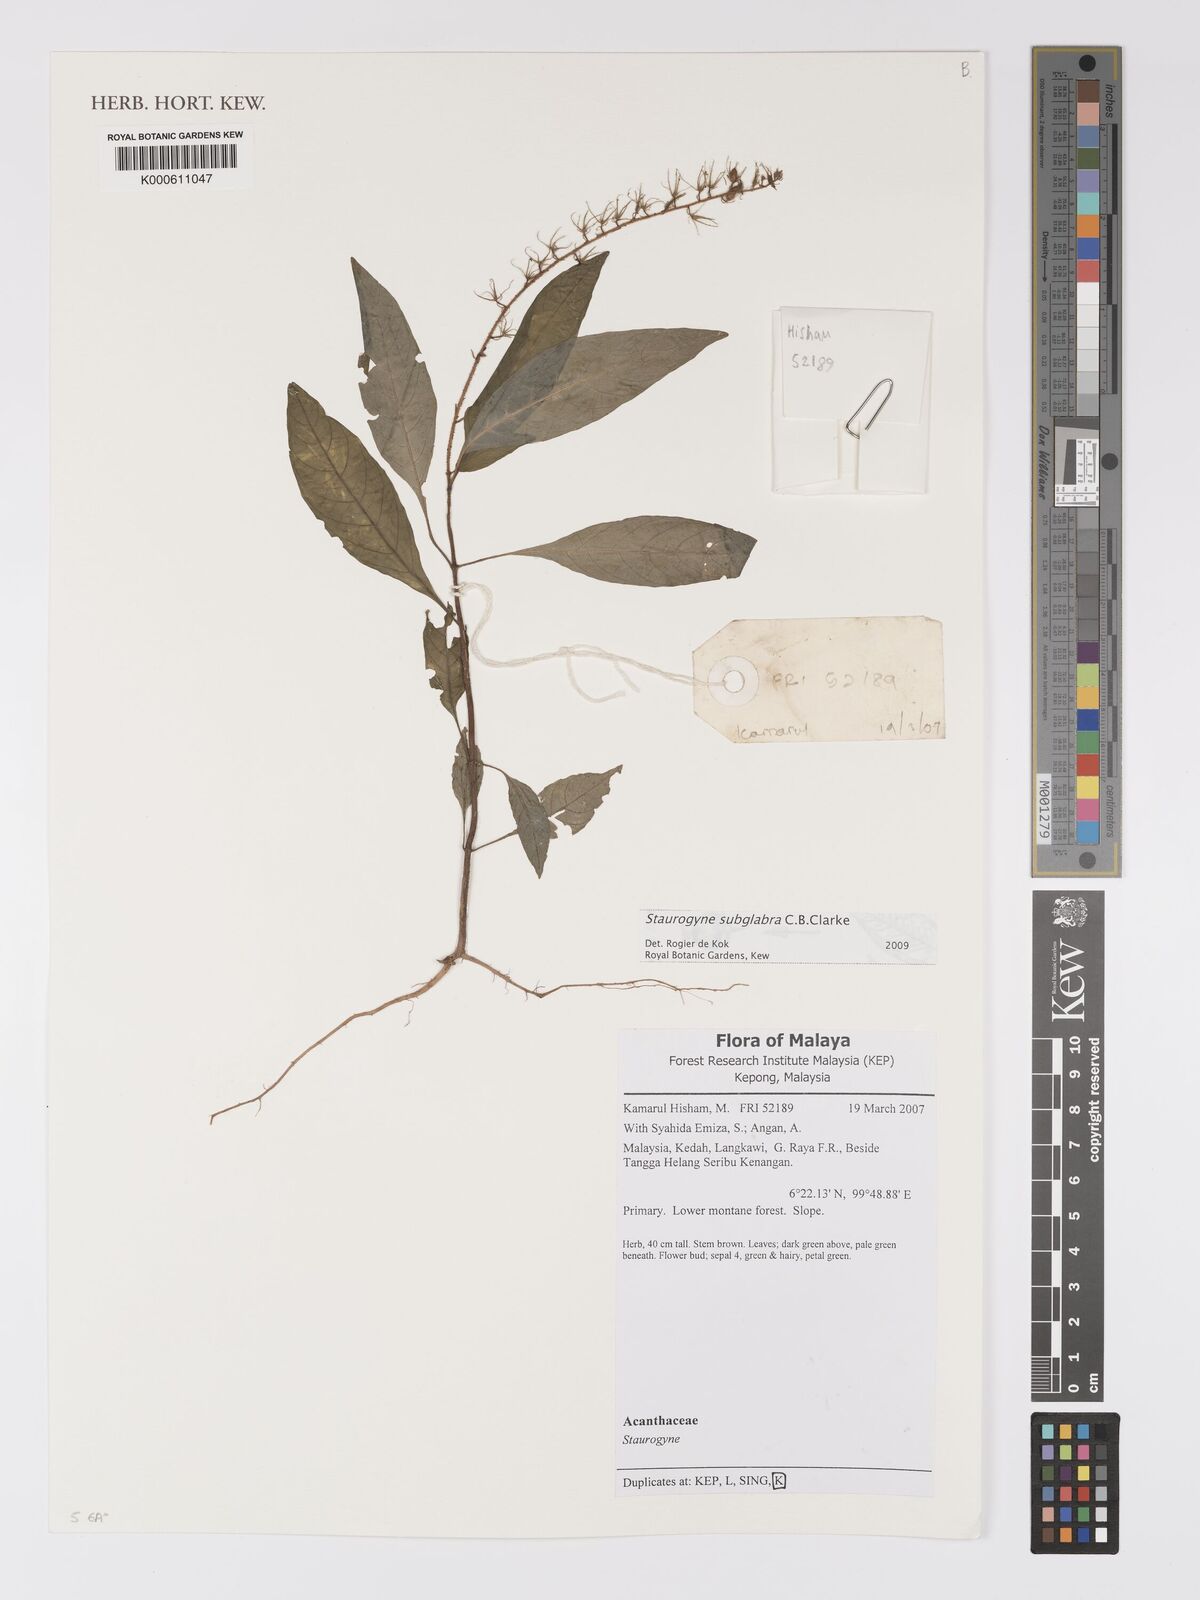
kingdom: Plantae
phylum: Tracheophyta
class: Magnoliopsida
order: Lamiales
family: Acanthaceae
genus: Staurogyne
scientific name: Staurogyne subglabra
